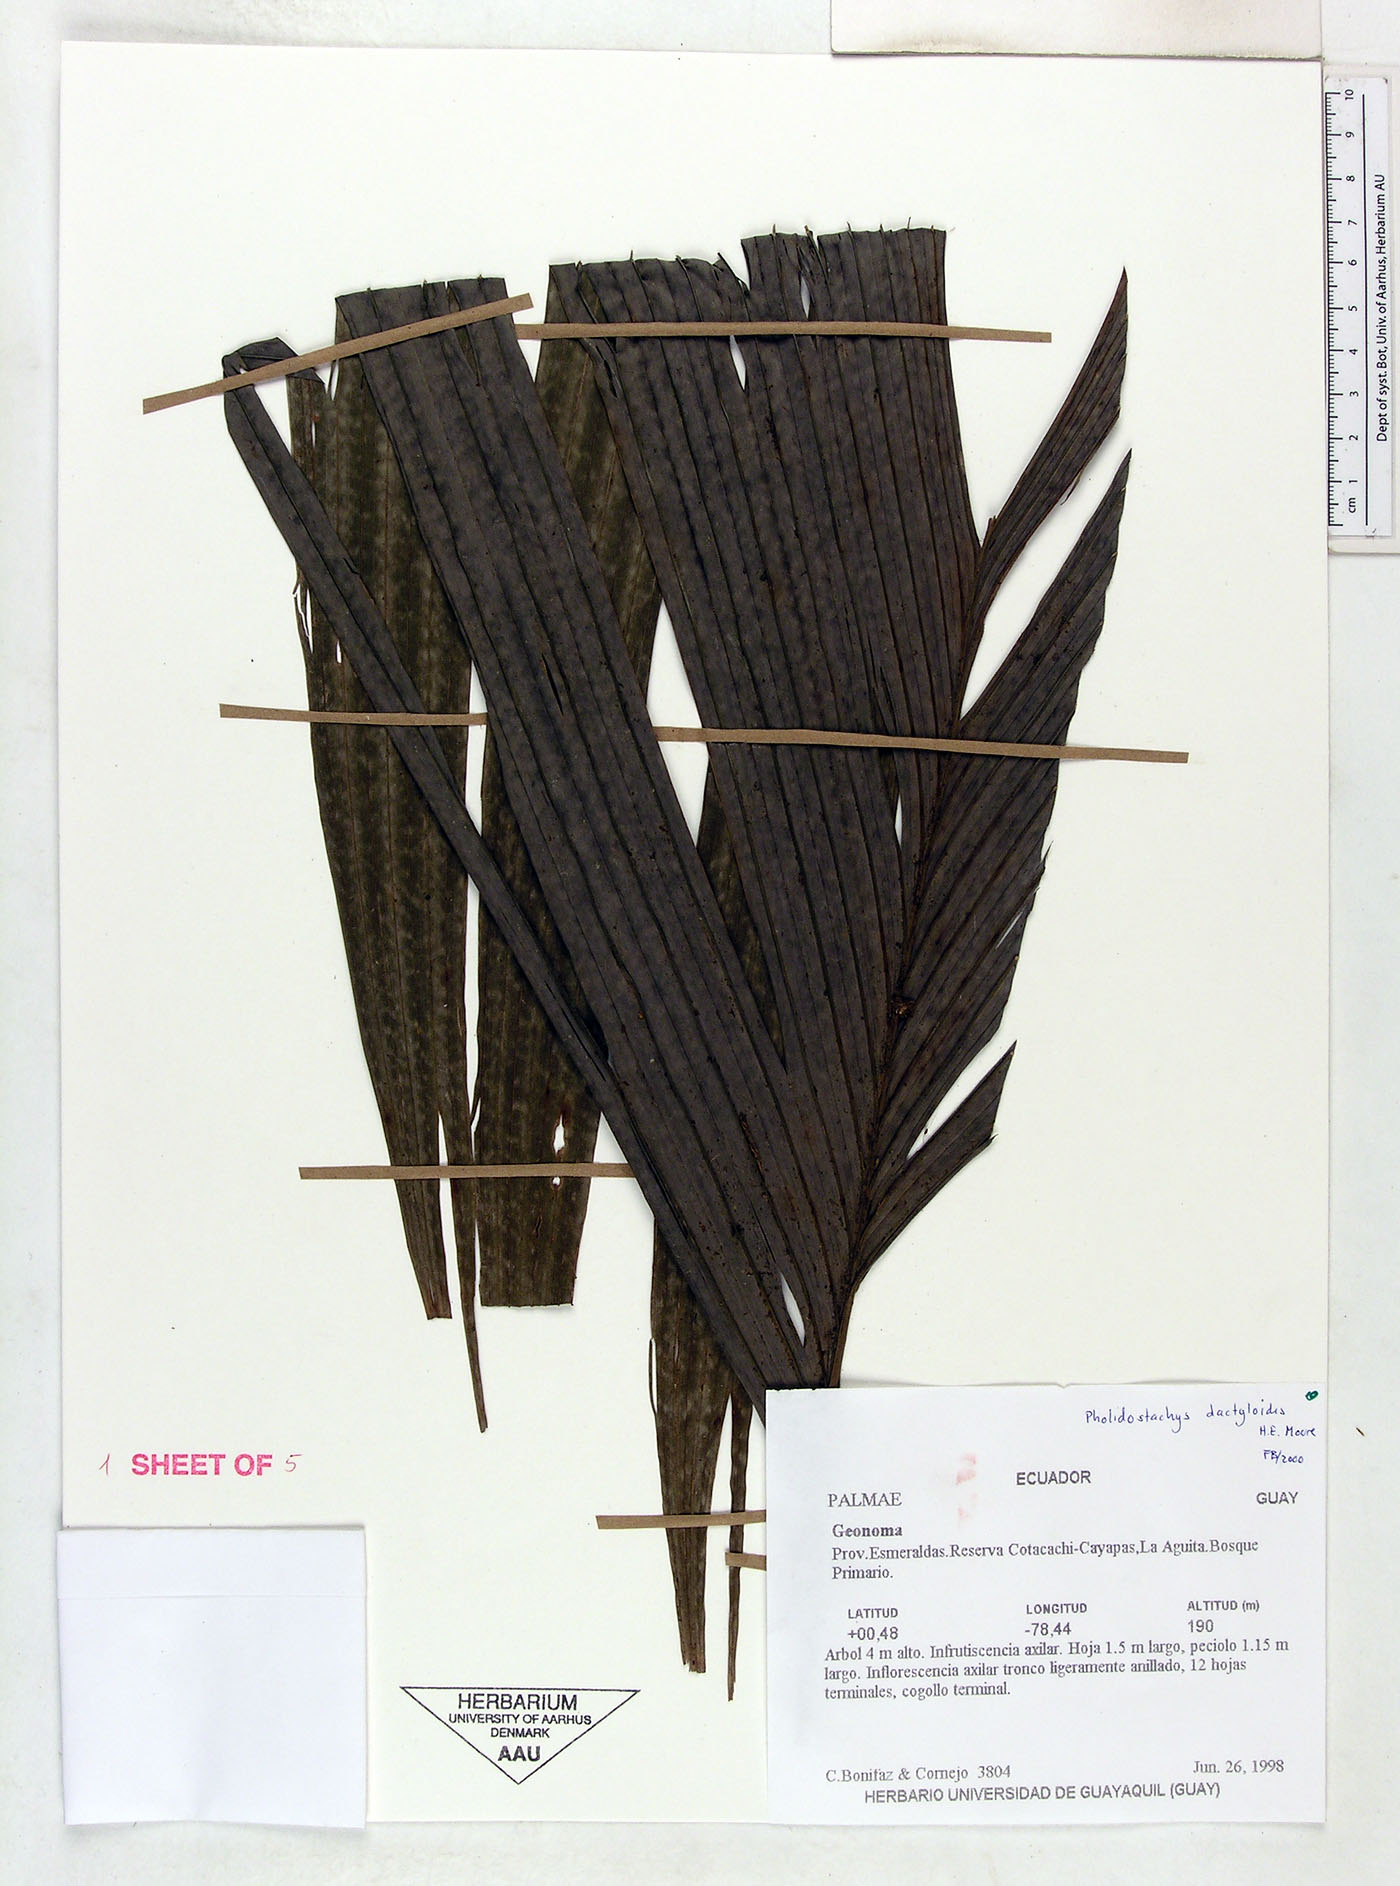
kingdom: Plantae
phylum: Tracheophyta
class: Liliopsida
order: Arecales
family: Arecaceae
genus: Pholidostachys
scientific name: Pholidostachys dactyloides
